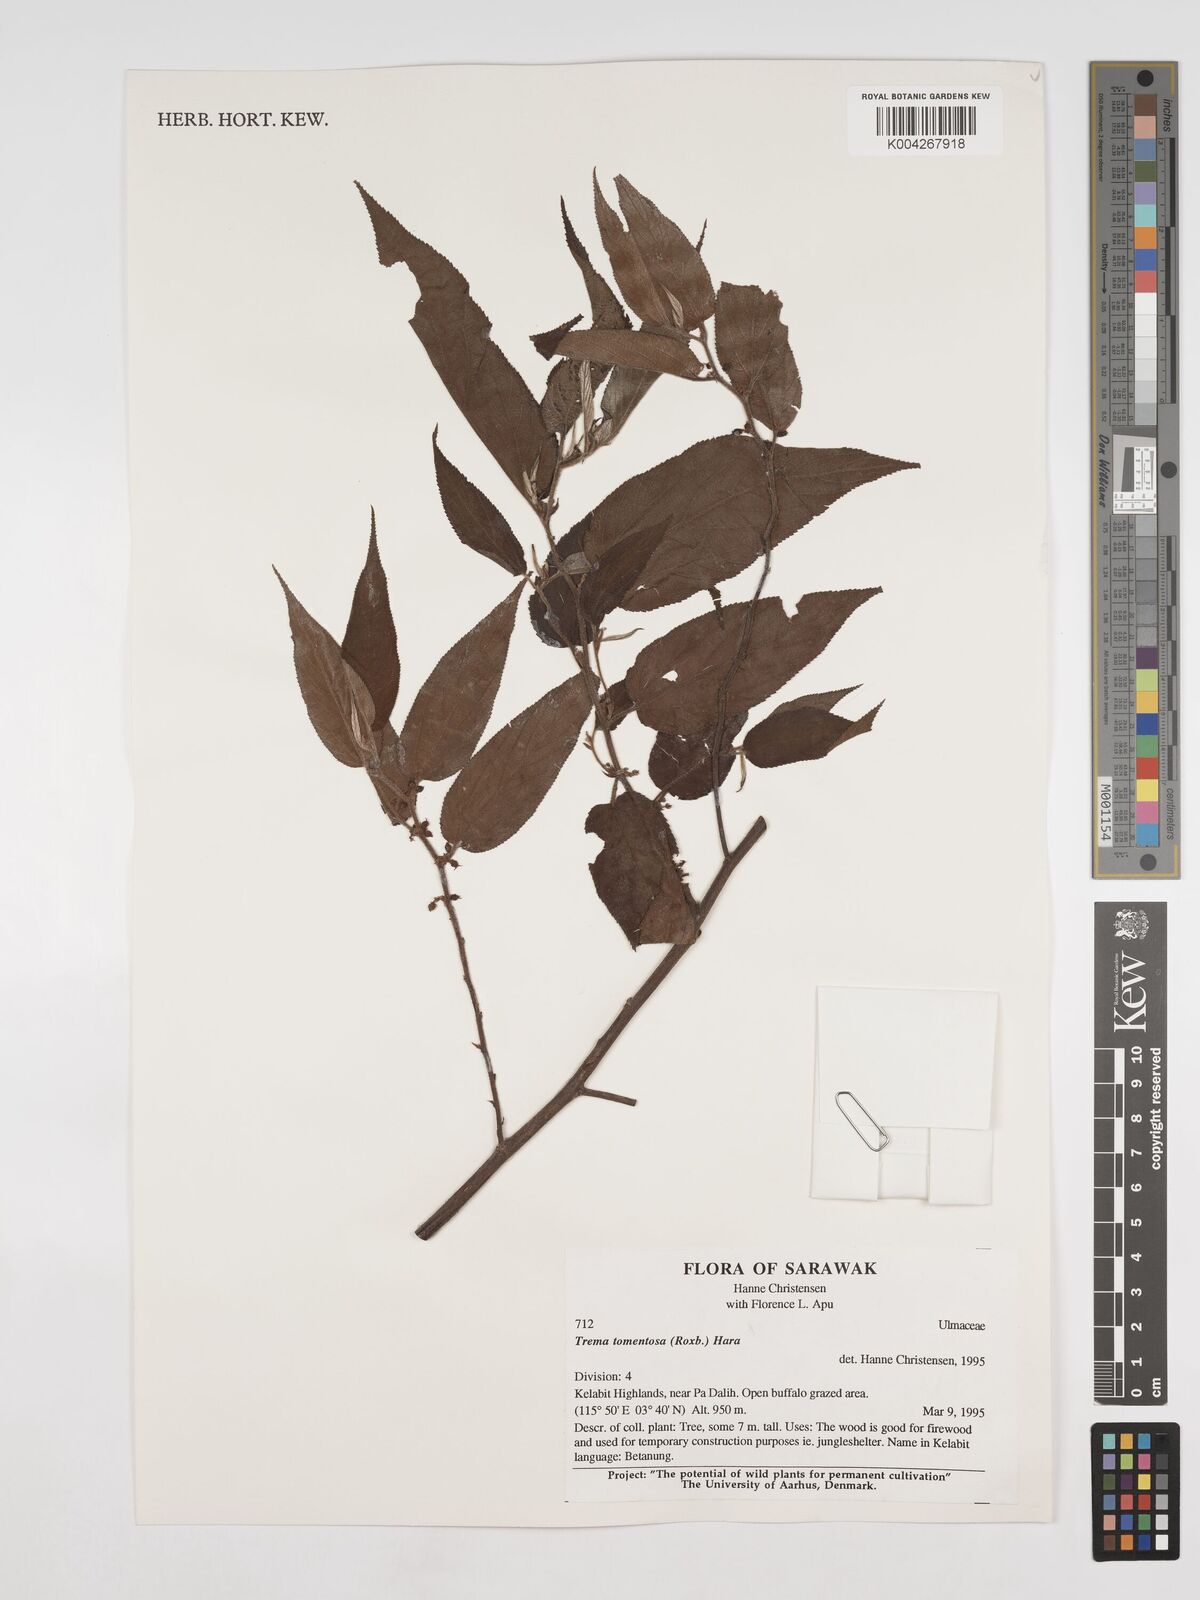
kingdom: Plantae
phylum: Tracheophyta
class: Magnoliopsida
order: Rosales
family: Cannabaceae
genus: Trema
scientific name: Trema tomentosum
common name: Peach-leaf-poisonbush
